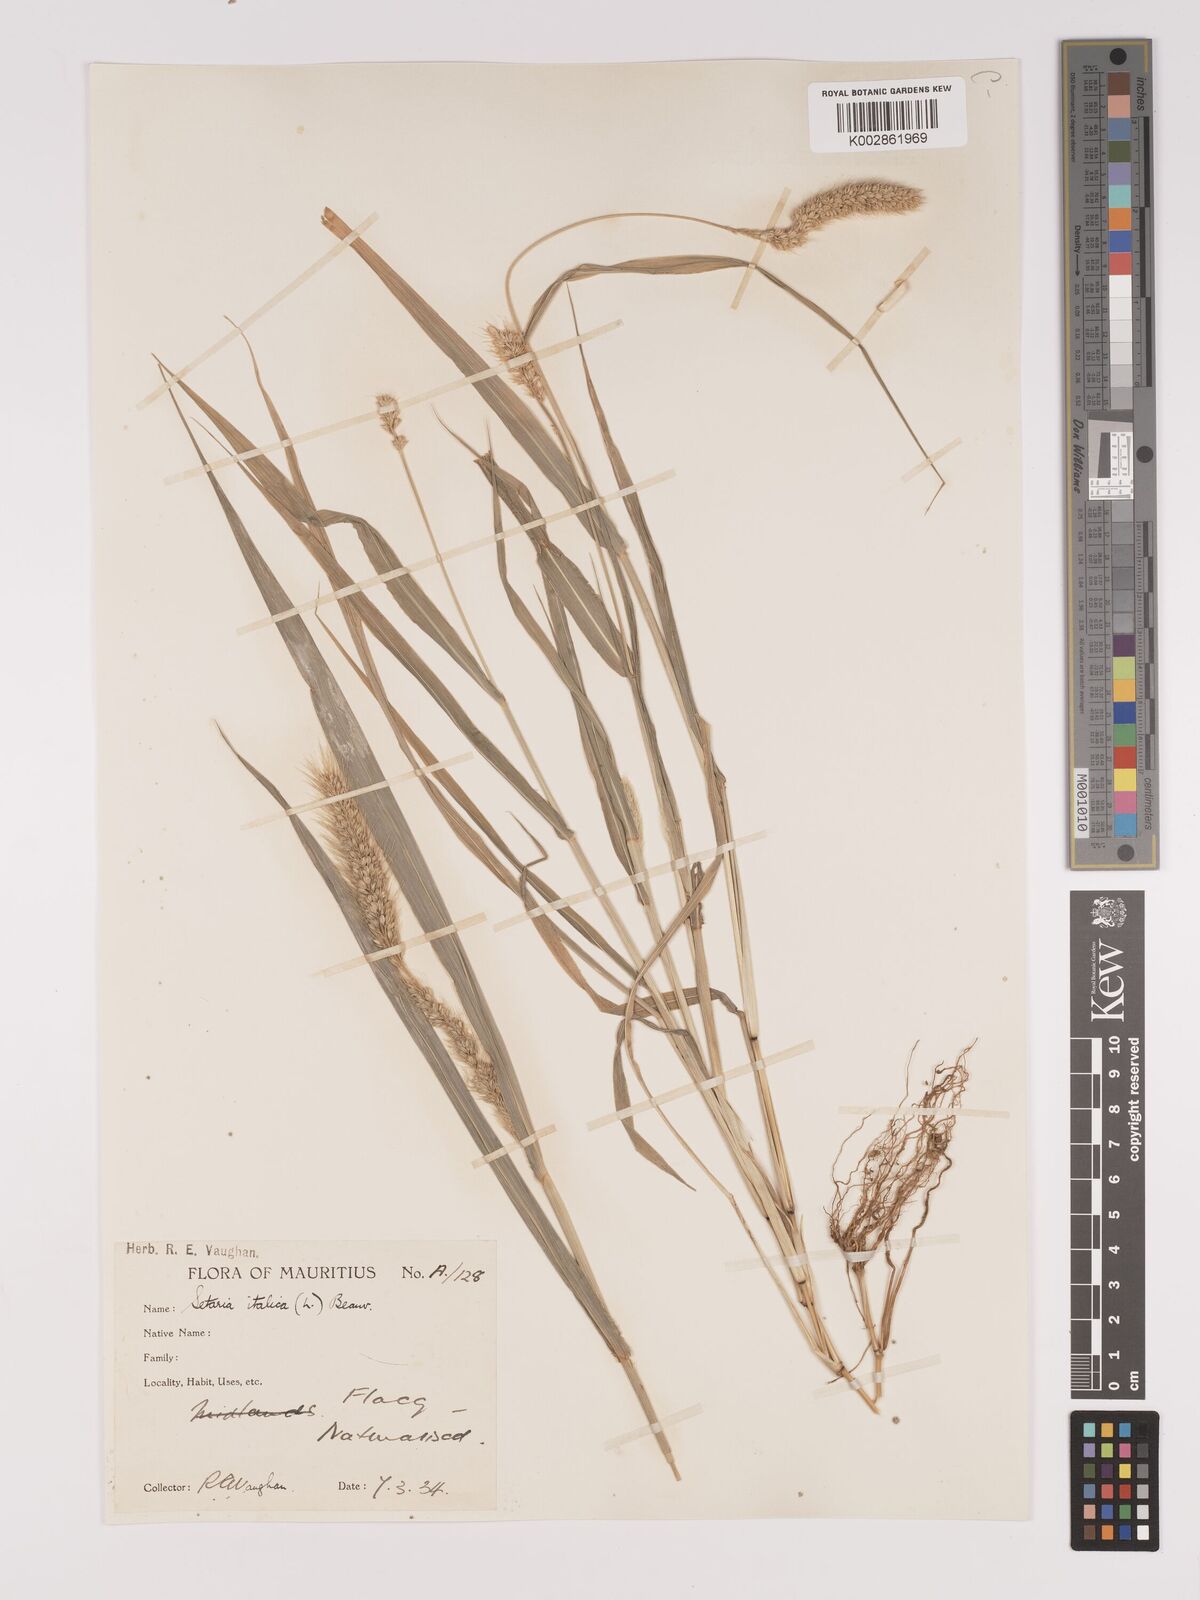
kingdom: Plantae
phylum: Tracheophyta
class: Liliopsida
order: Poales
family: Poaceae
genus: Setaria
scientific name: Setaria italica
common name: Foxtail bristle-grass
